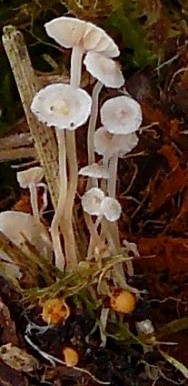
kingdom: Fungi
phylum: Basidiomycota
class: Agaricomycetes
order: Agaricales
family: Tricholomataceae
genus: Collybia
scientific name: Collybia cookei
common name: gulknoldet lighat
